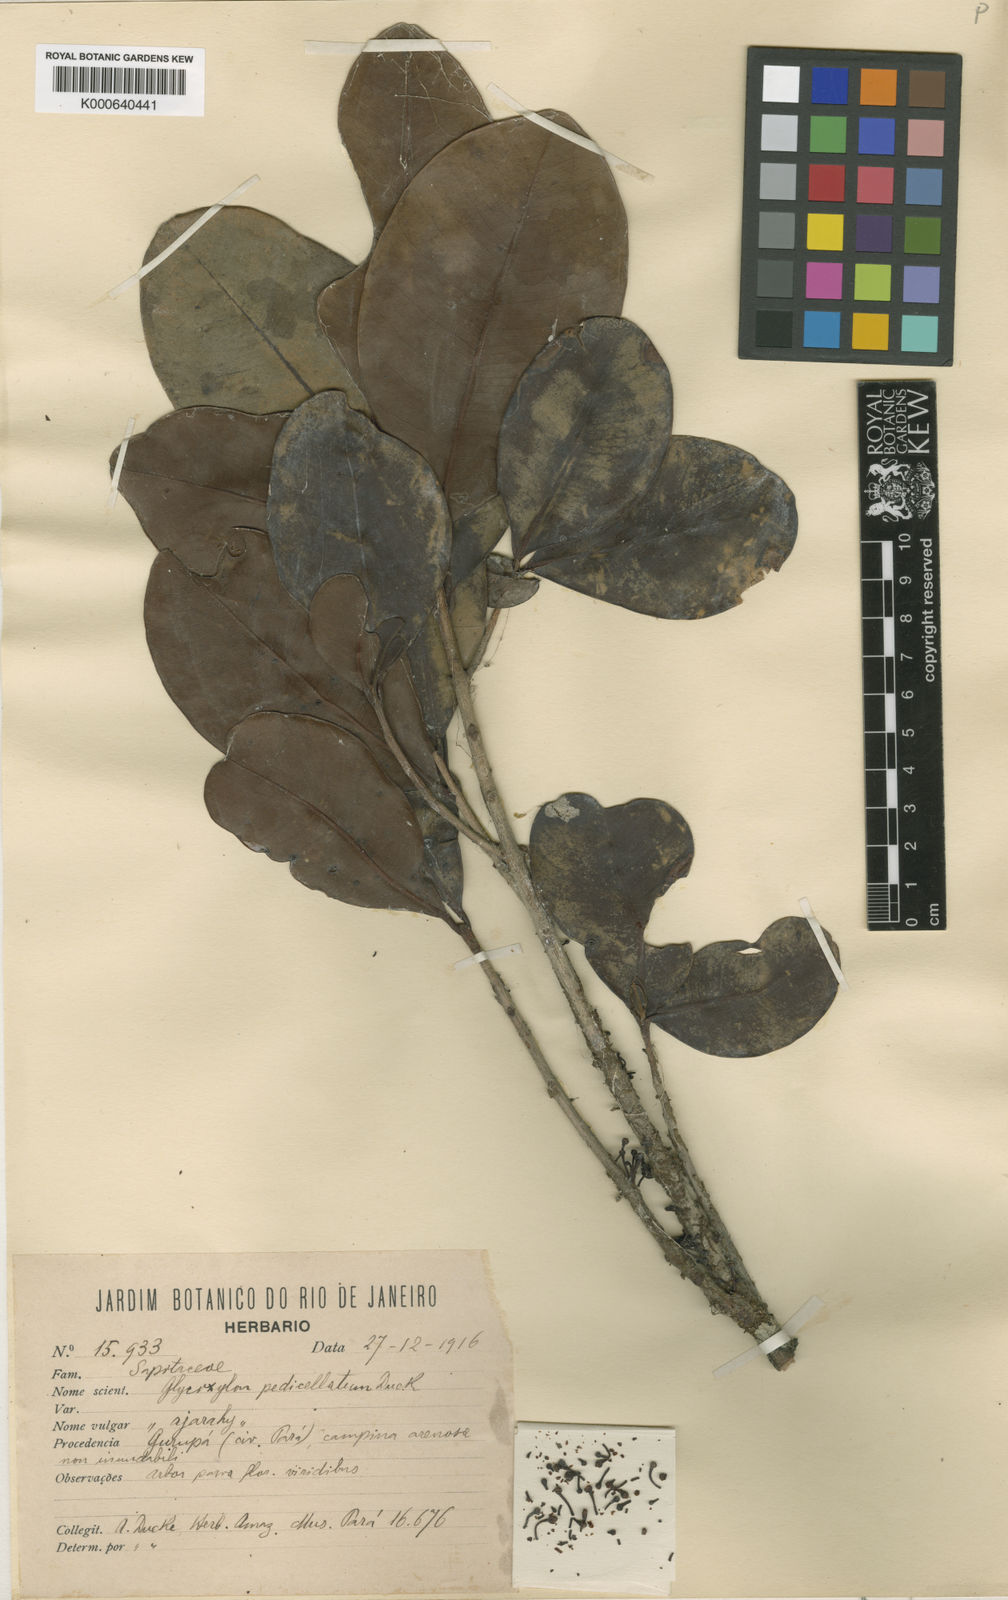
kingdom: Plantae
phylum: Tracheophyta
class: Magnoliopsida
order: Ericales
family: Sapotaceae
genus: Pradosia
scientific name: Pradosia schomburgkiana
